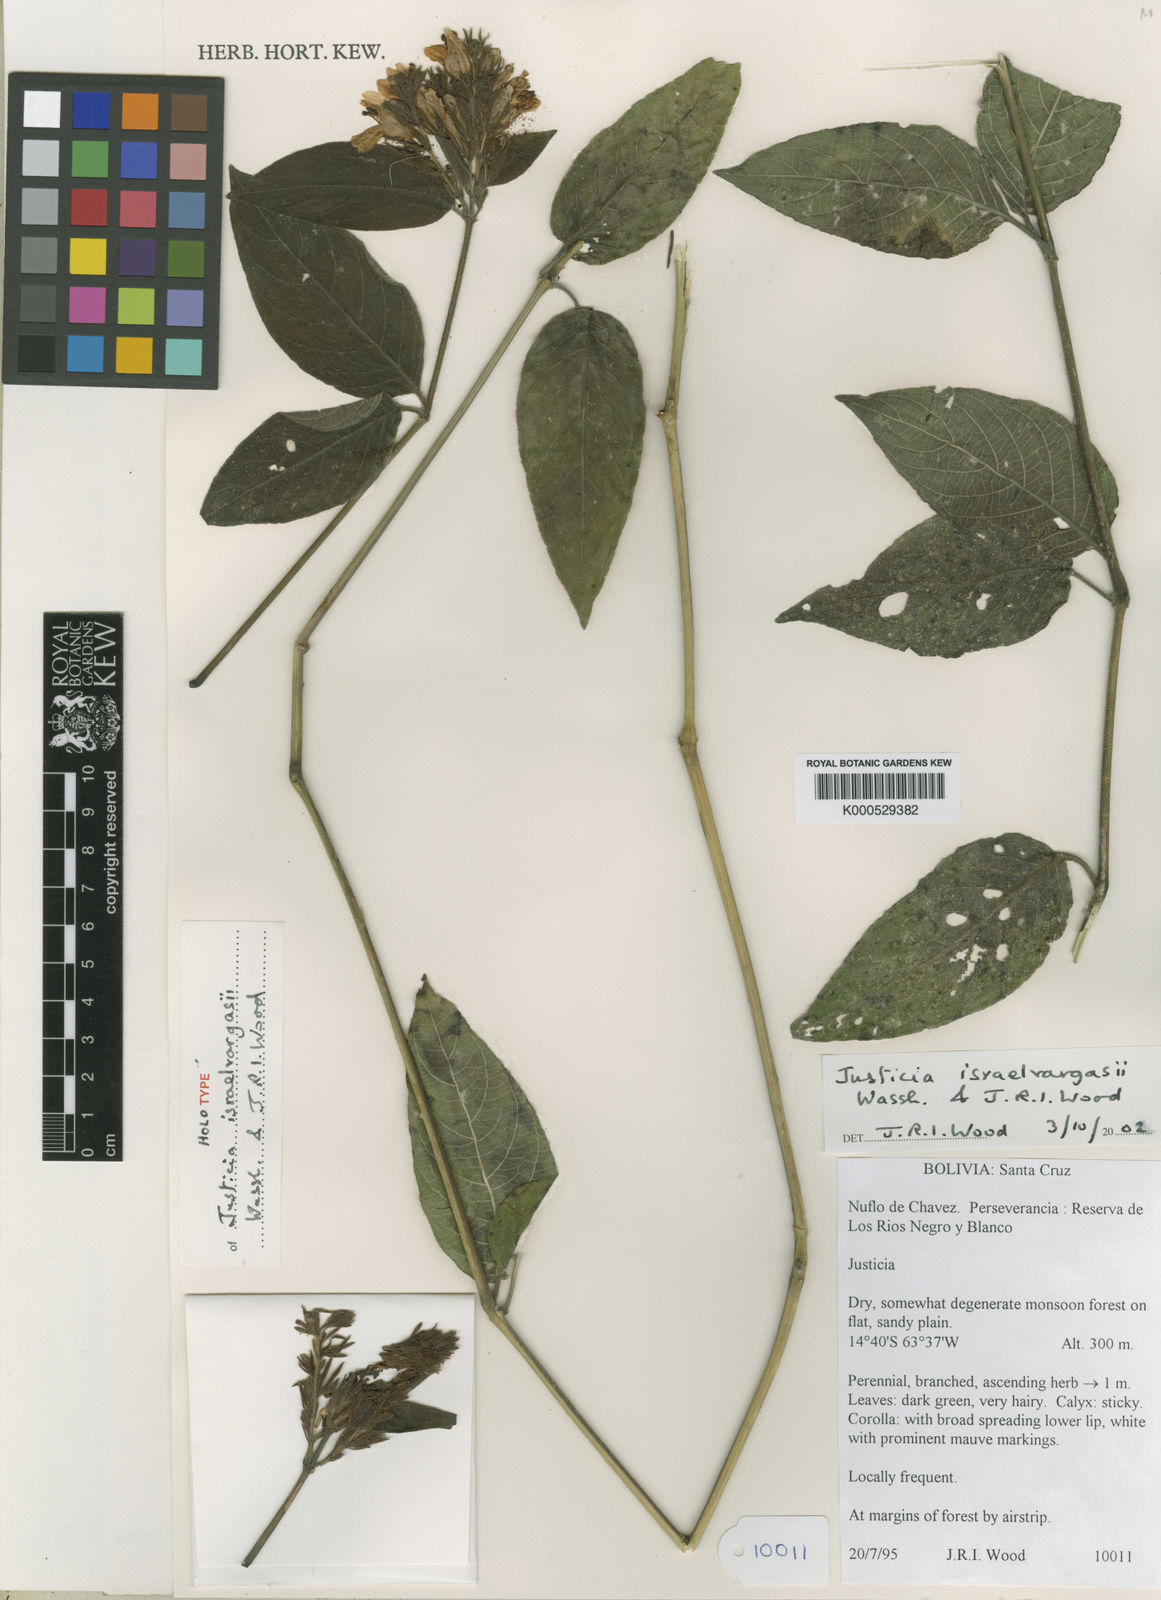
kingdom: Plantae
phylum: Tracheophyta
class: Magnoliopsida
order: Lamiales
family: Acanthaceae
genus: Justicia
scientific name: Justicia israelvargasii
